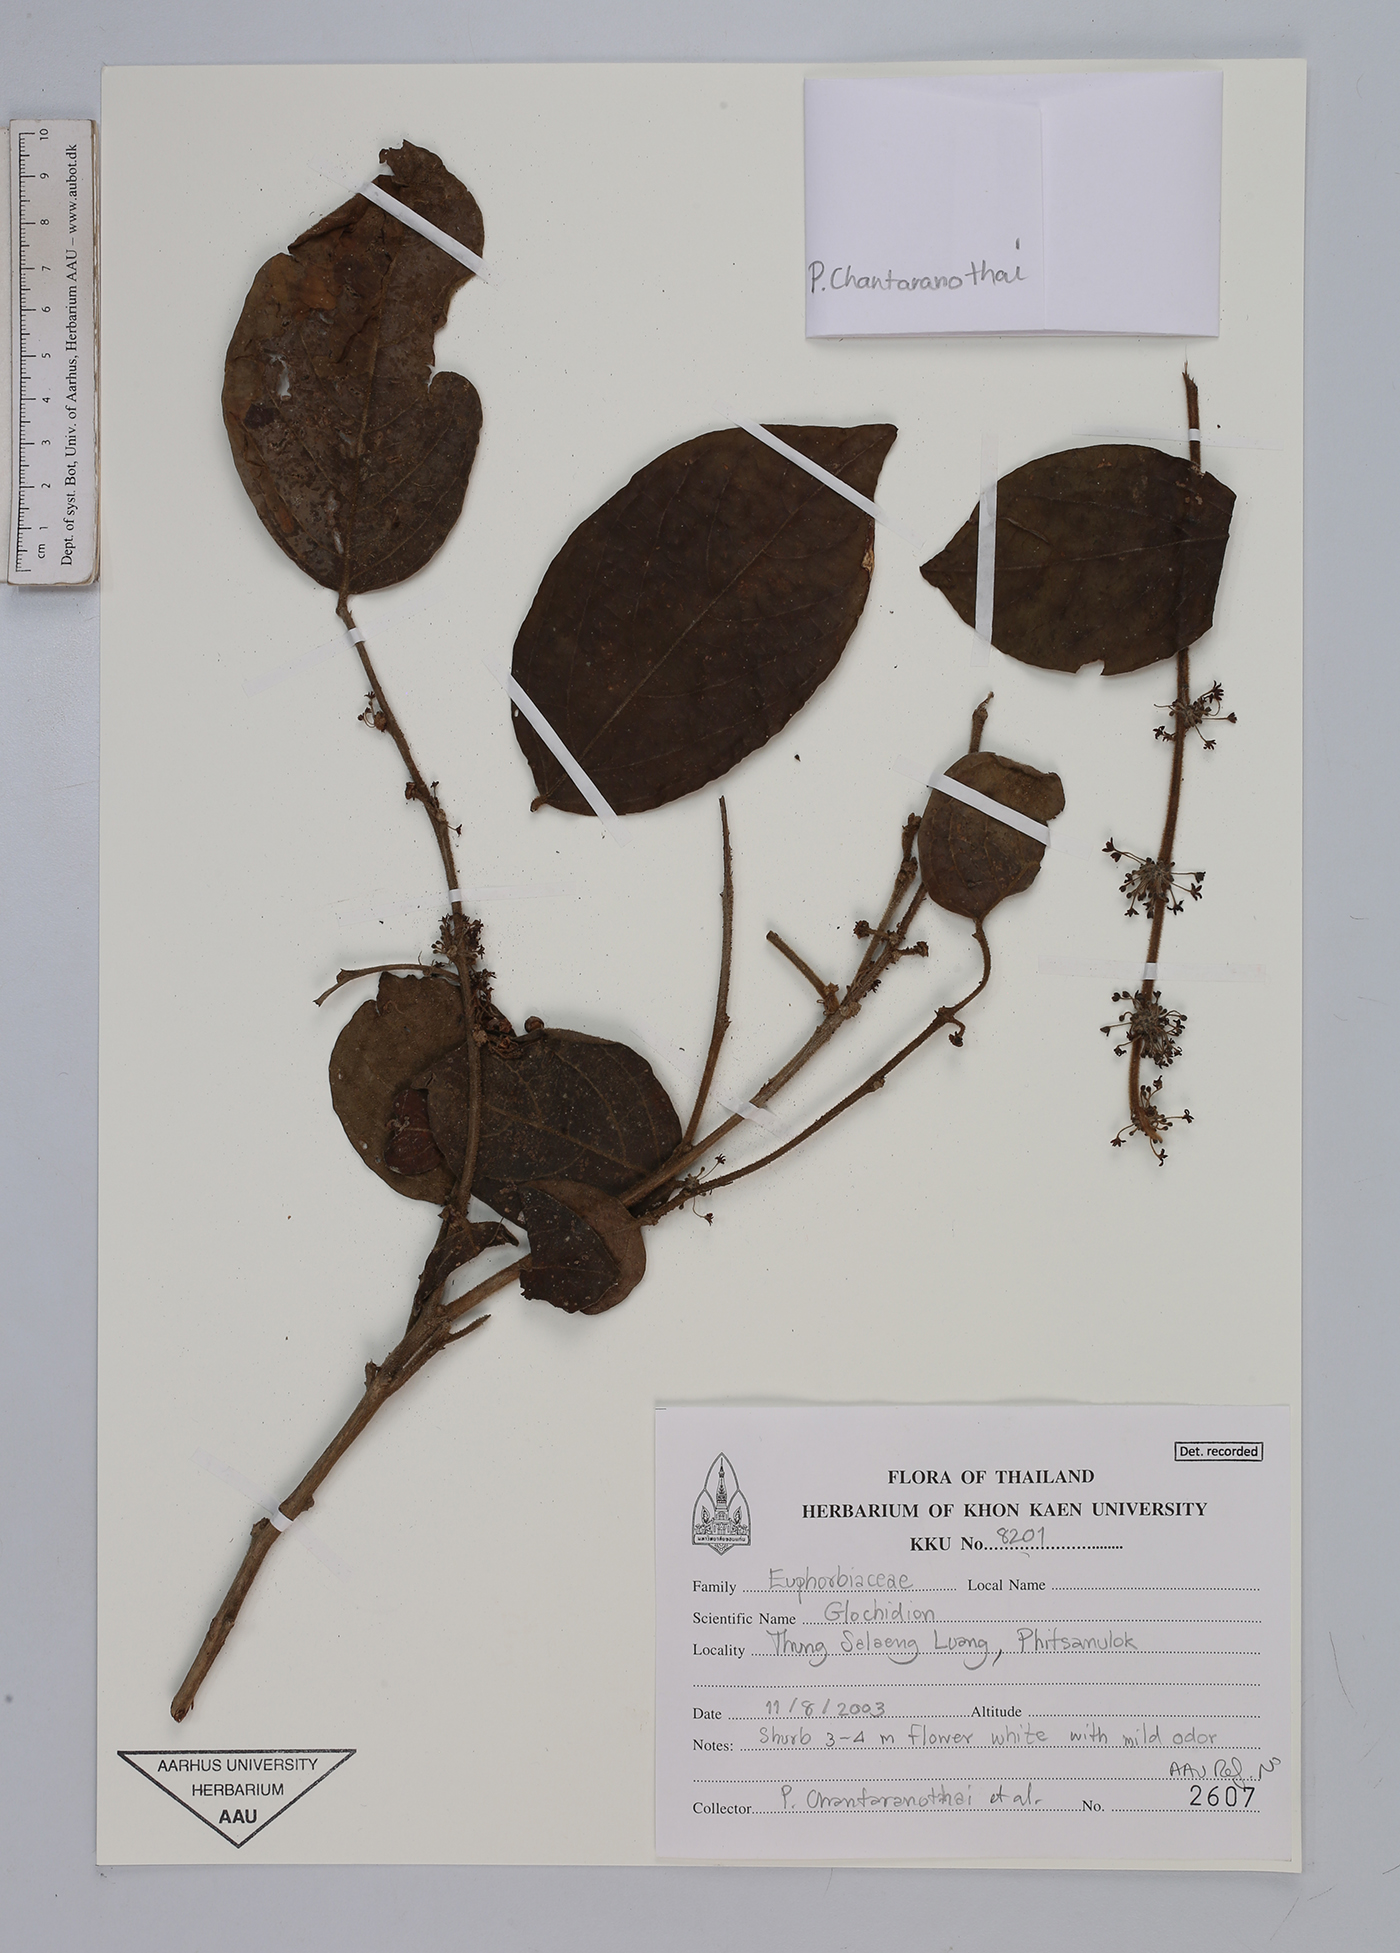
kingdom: Plantae
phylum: Tracheophyta
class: Magnoliopsida
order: Malpighiales
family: Phyllanthaceae
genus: Glochidion
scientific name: Glochidion
